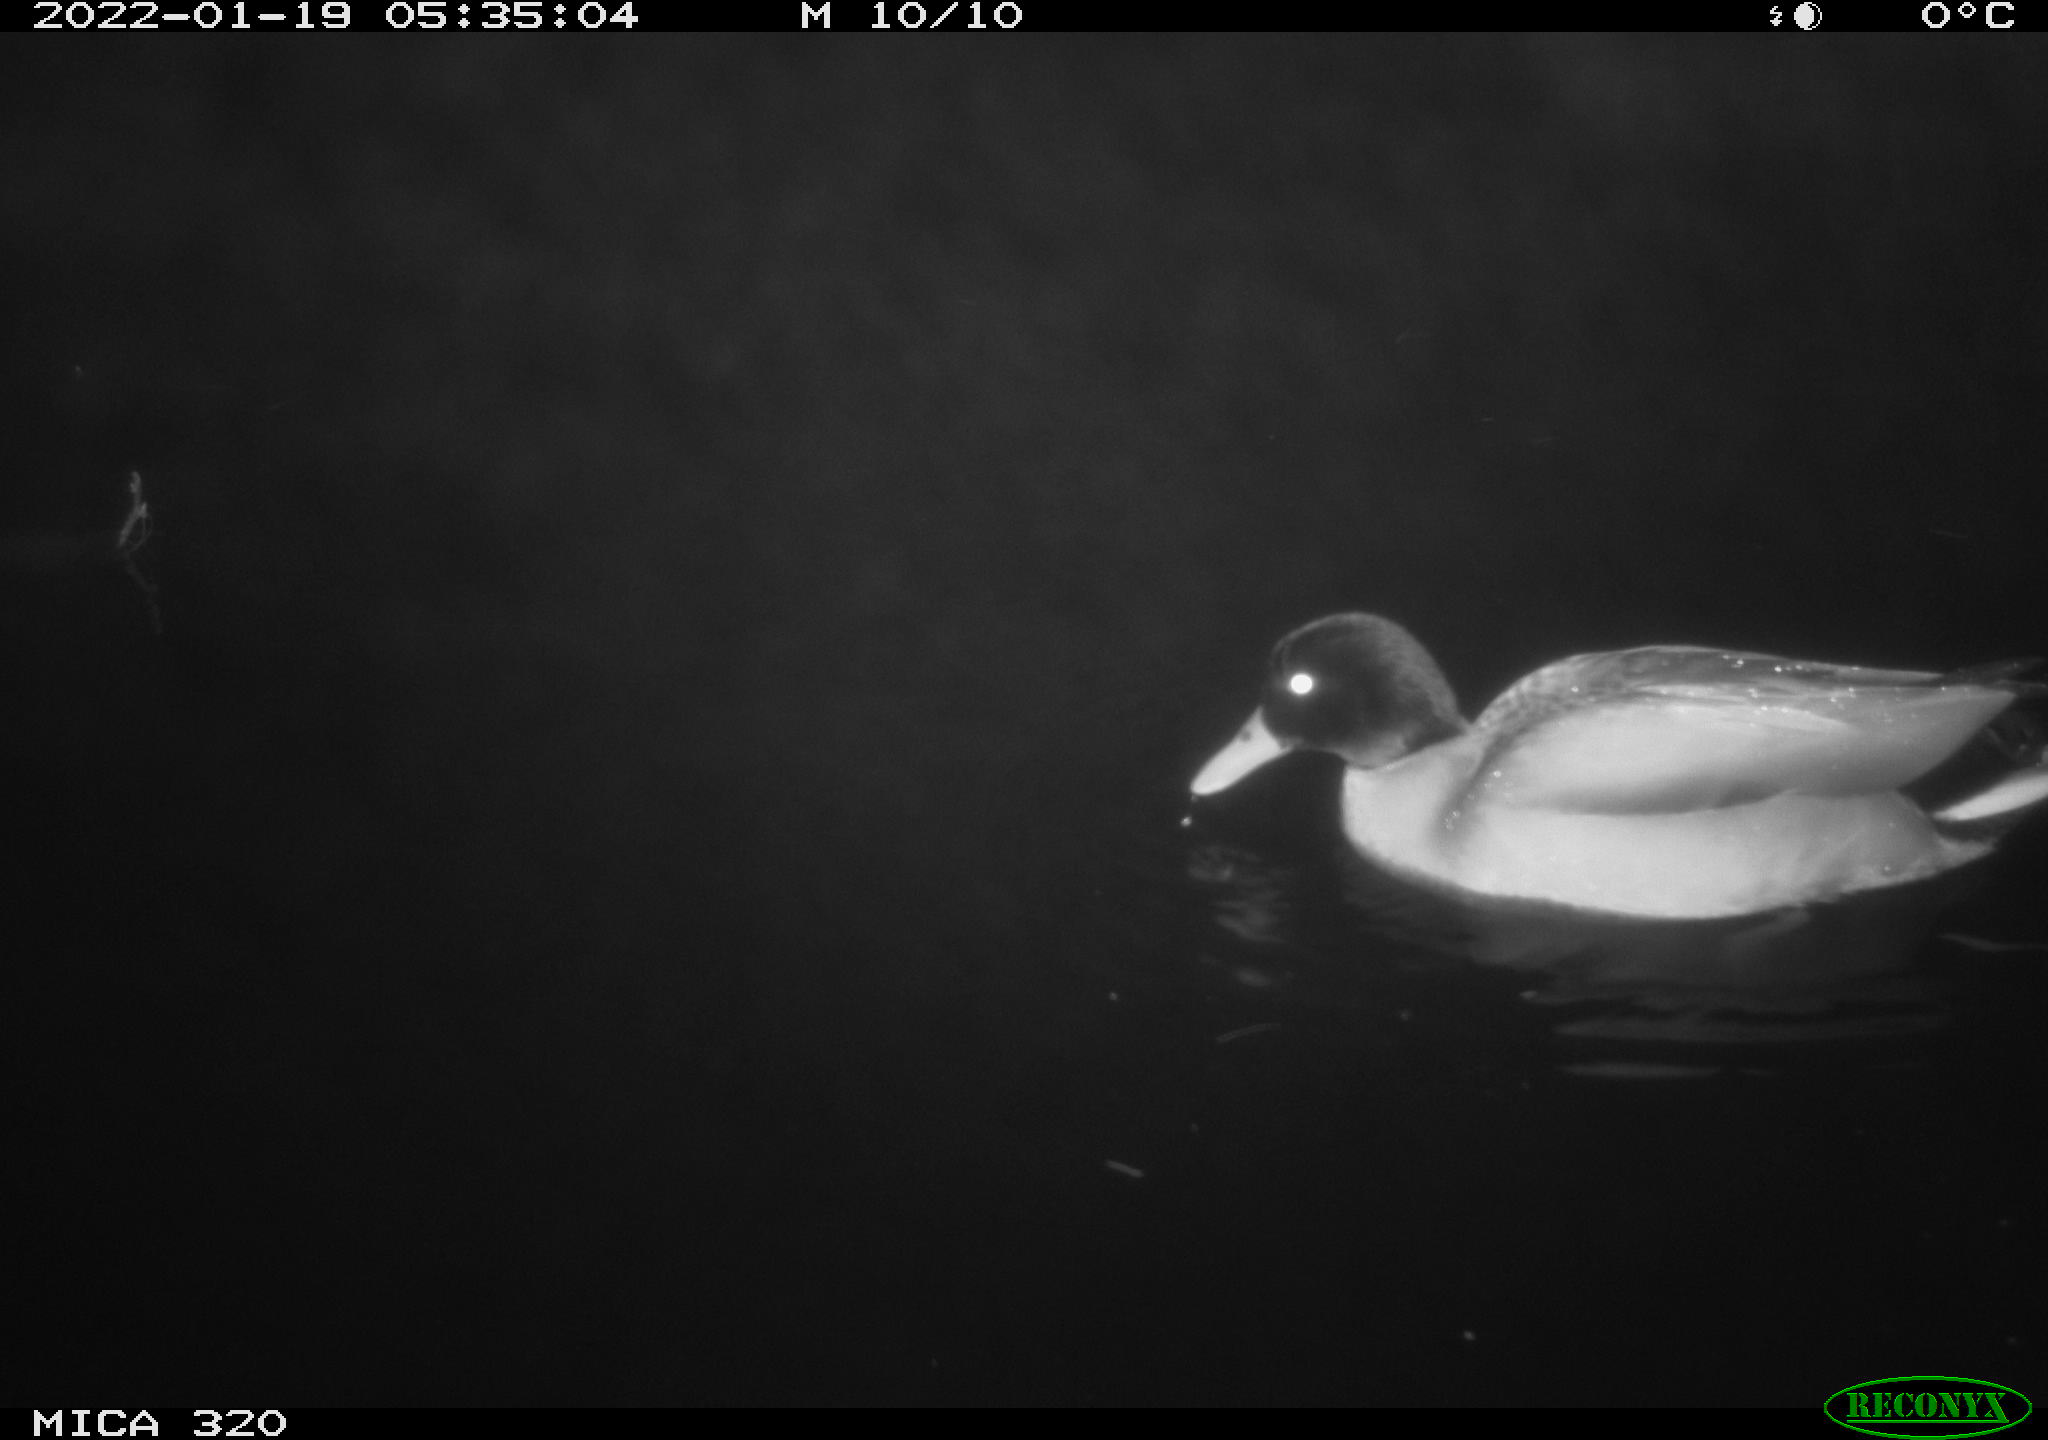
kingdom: Animalia
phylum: Chordata
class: Aves
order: Anseriformes
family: Anatidae
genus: Anas
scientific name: Anas
